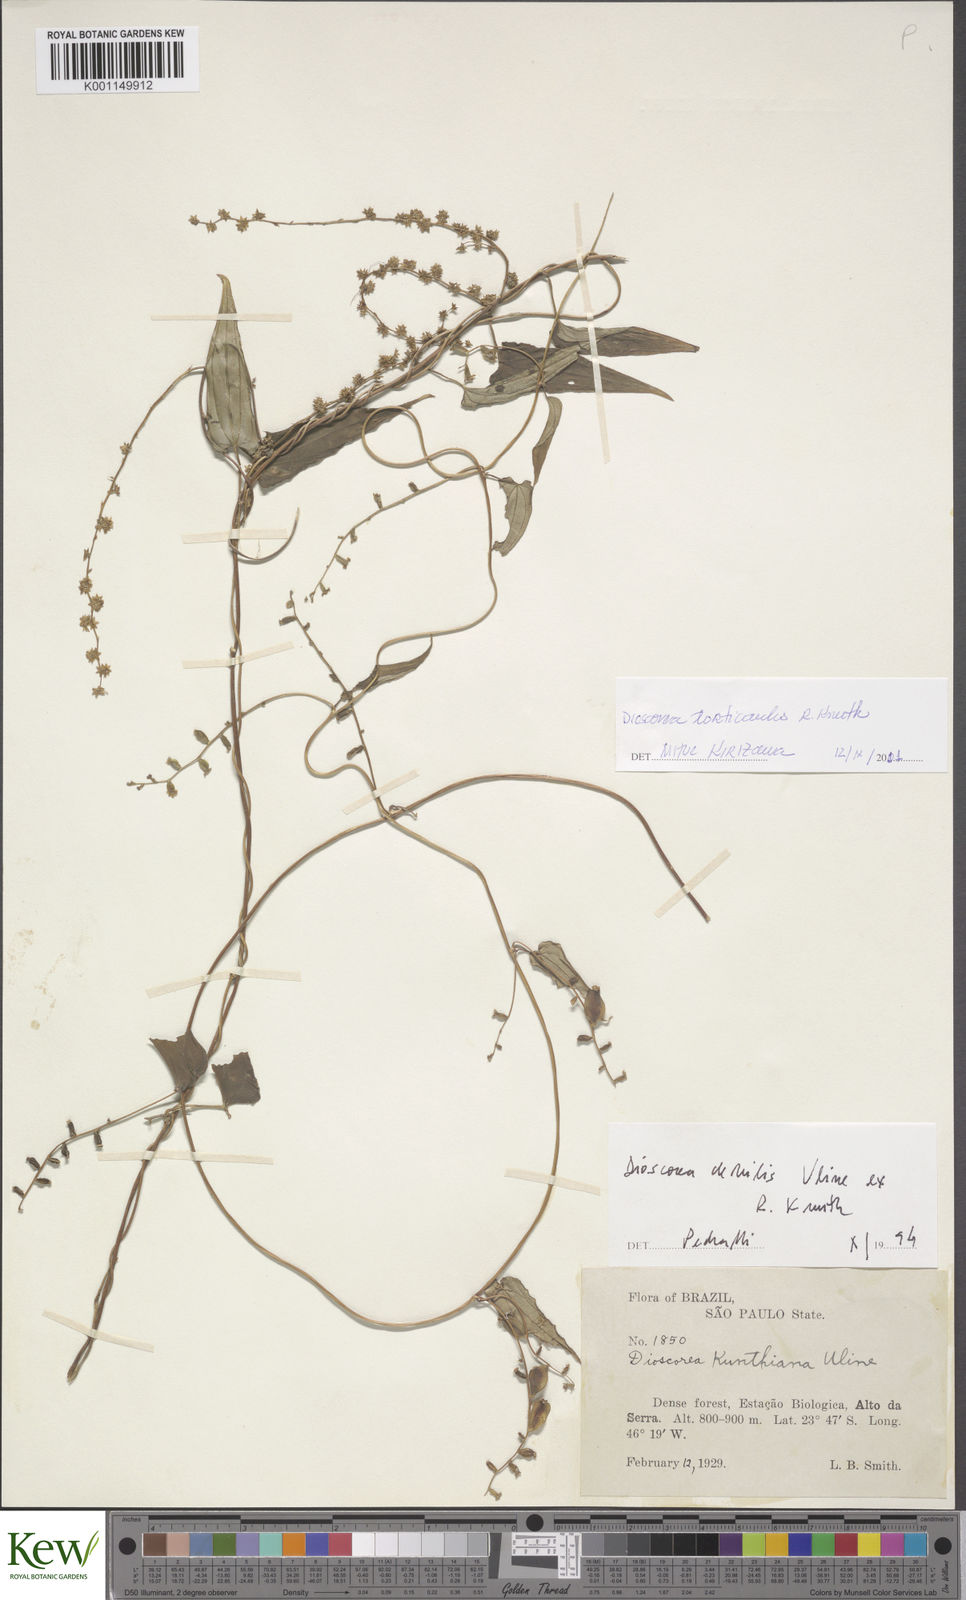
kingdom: Plantae
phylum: Tracheophyta
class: Liliopsida
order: Dioscoreales
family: Dioscoreaceae
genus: Dioscorea
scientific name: Dioscorea torticaulis
